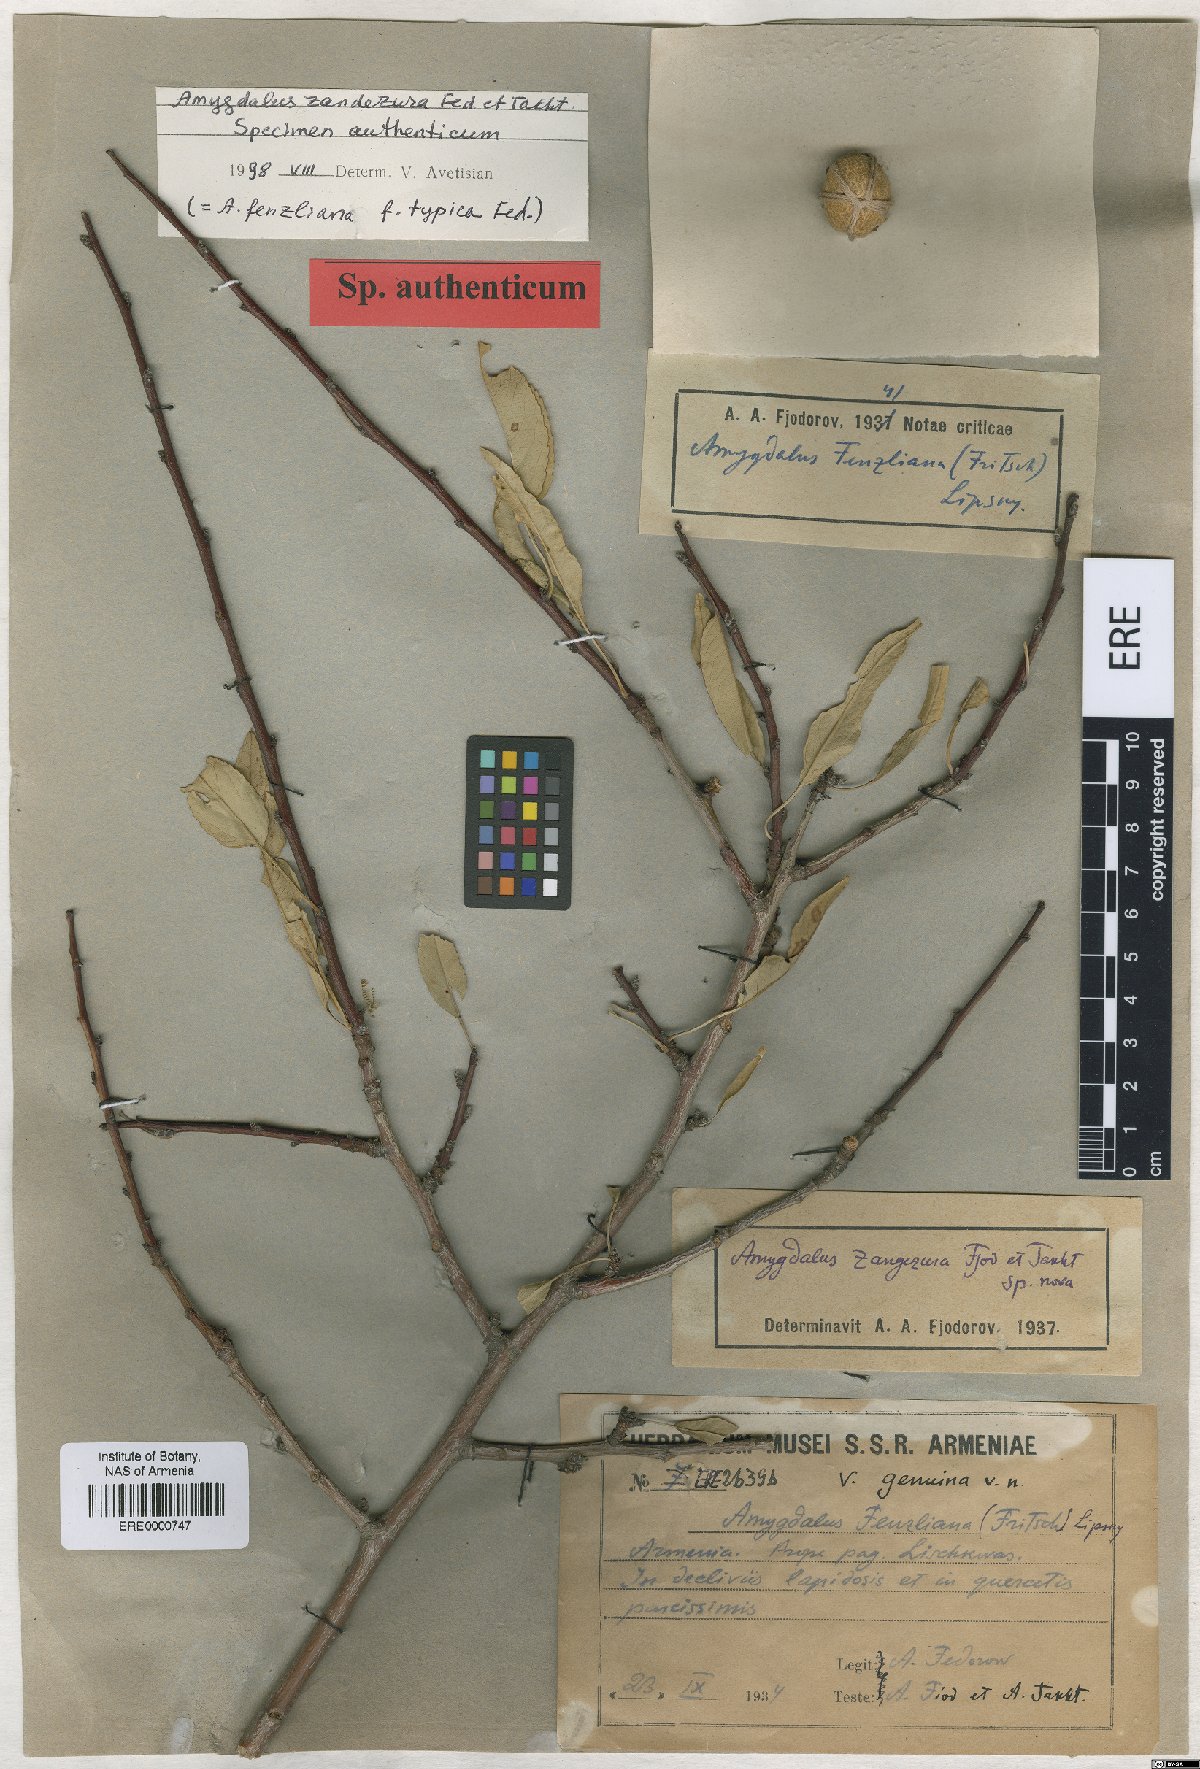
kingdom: Plantae
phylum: Tracheophyta
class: Magnoliopsida
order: Rosales
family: Rosaceae
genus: Prunus
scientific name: Prunus Amygdalus zangezura
